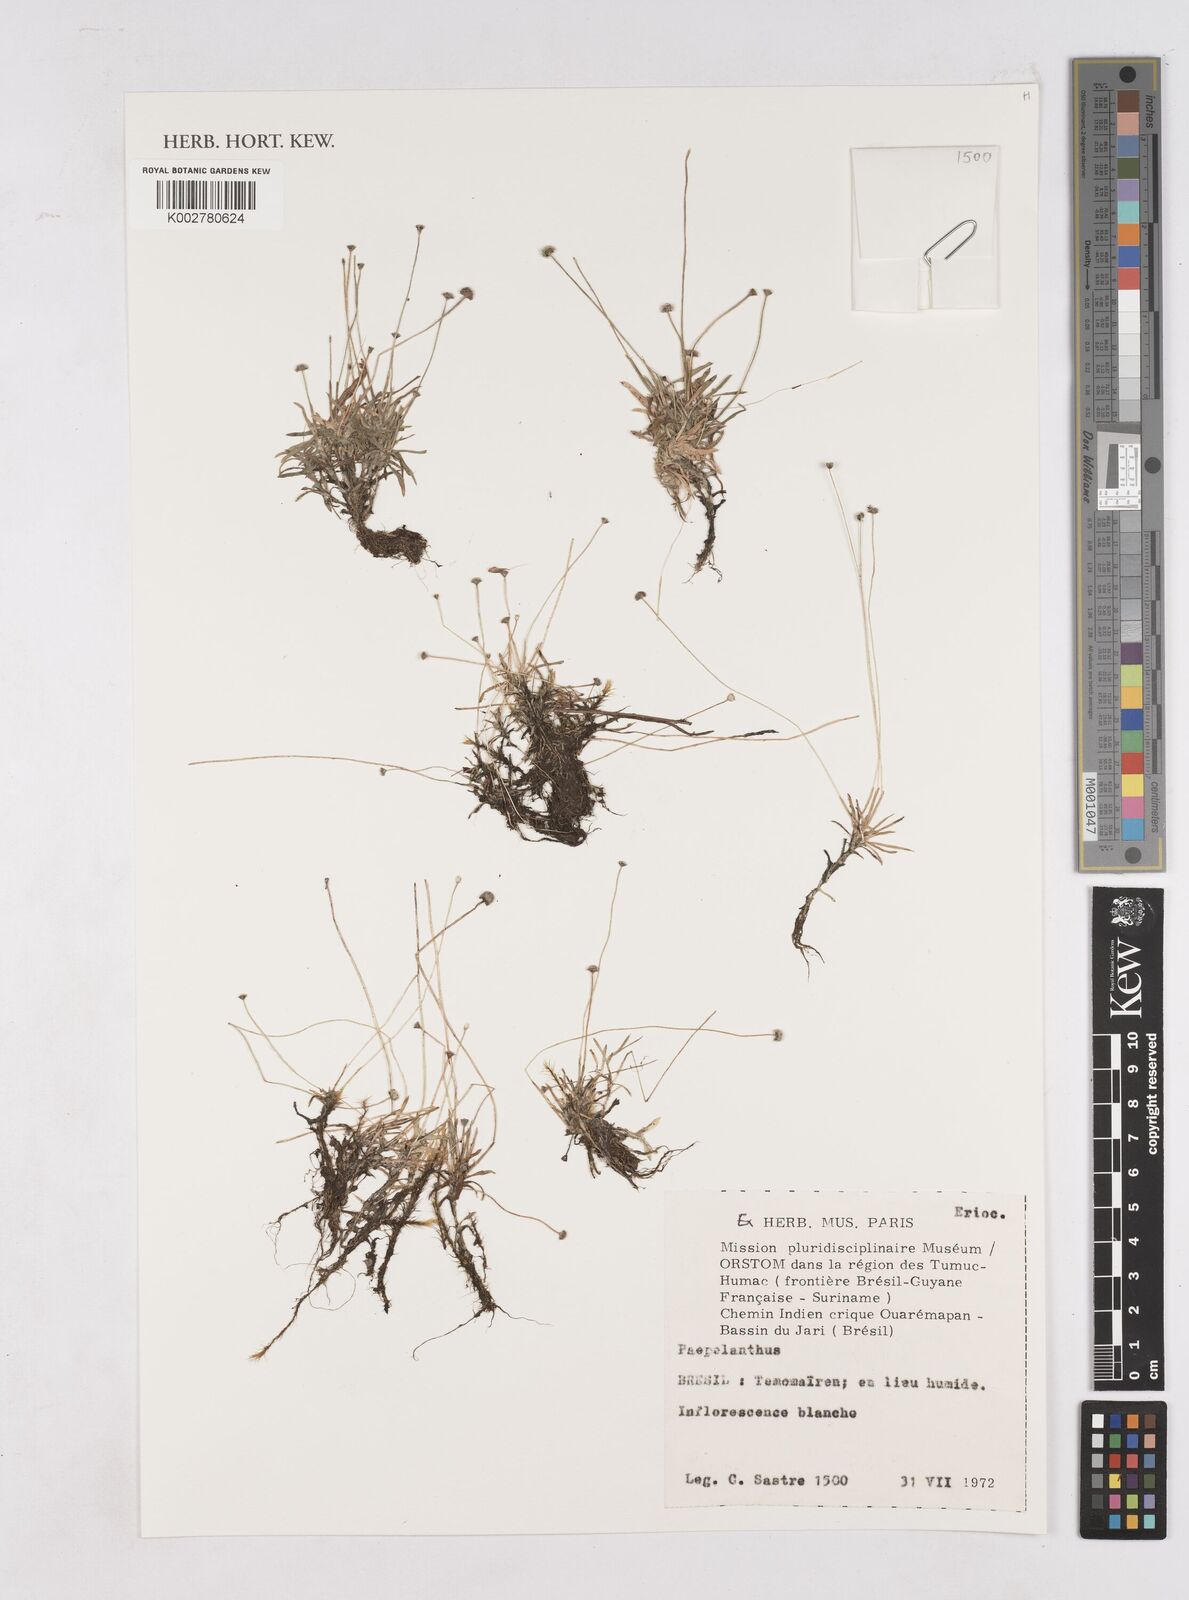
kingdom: Plantae
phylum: Tracheophyta
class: Liliopsida
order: Poales
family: Eriocaulaceae
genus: Paepalanthus
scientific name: Paepalanthus
